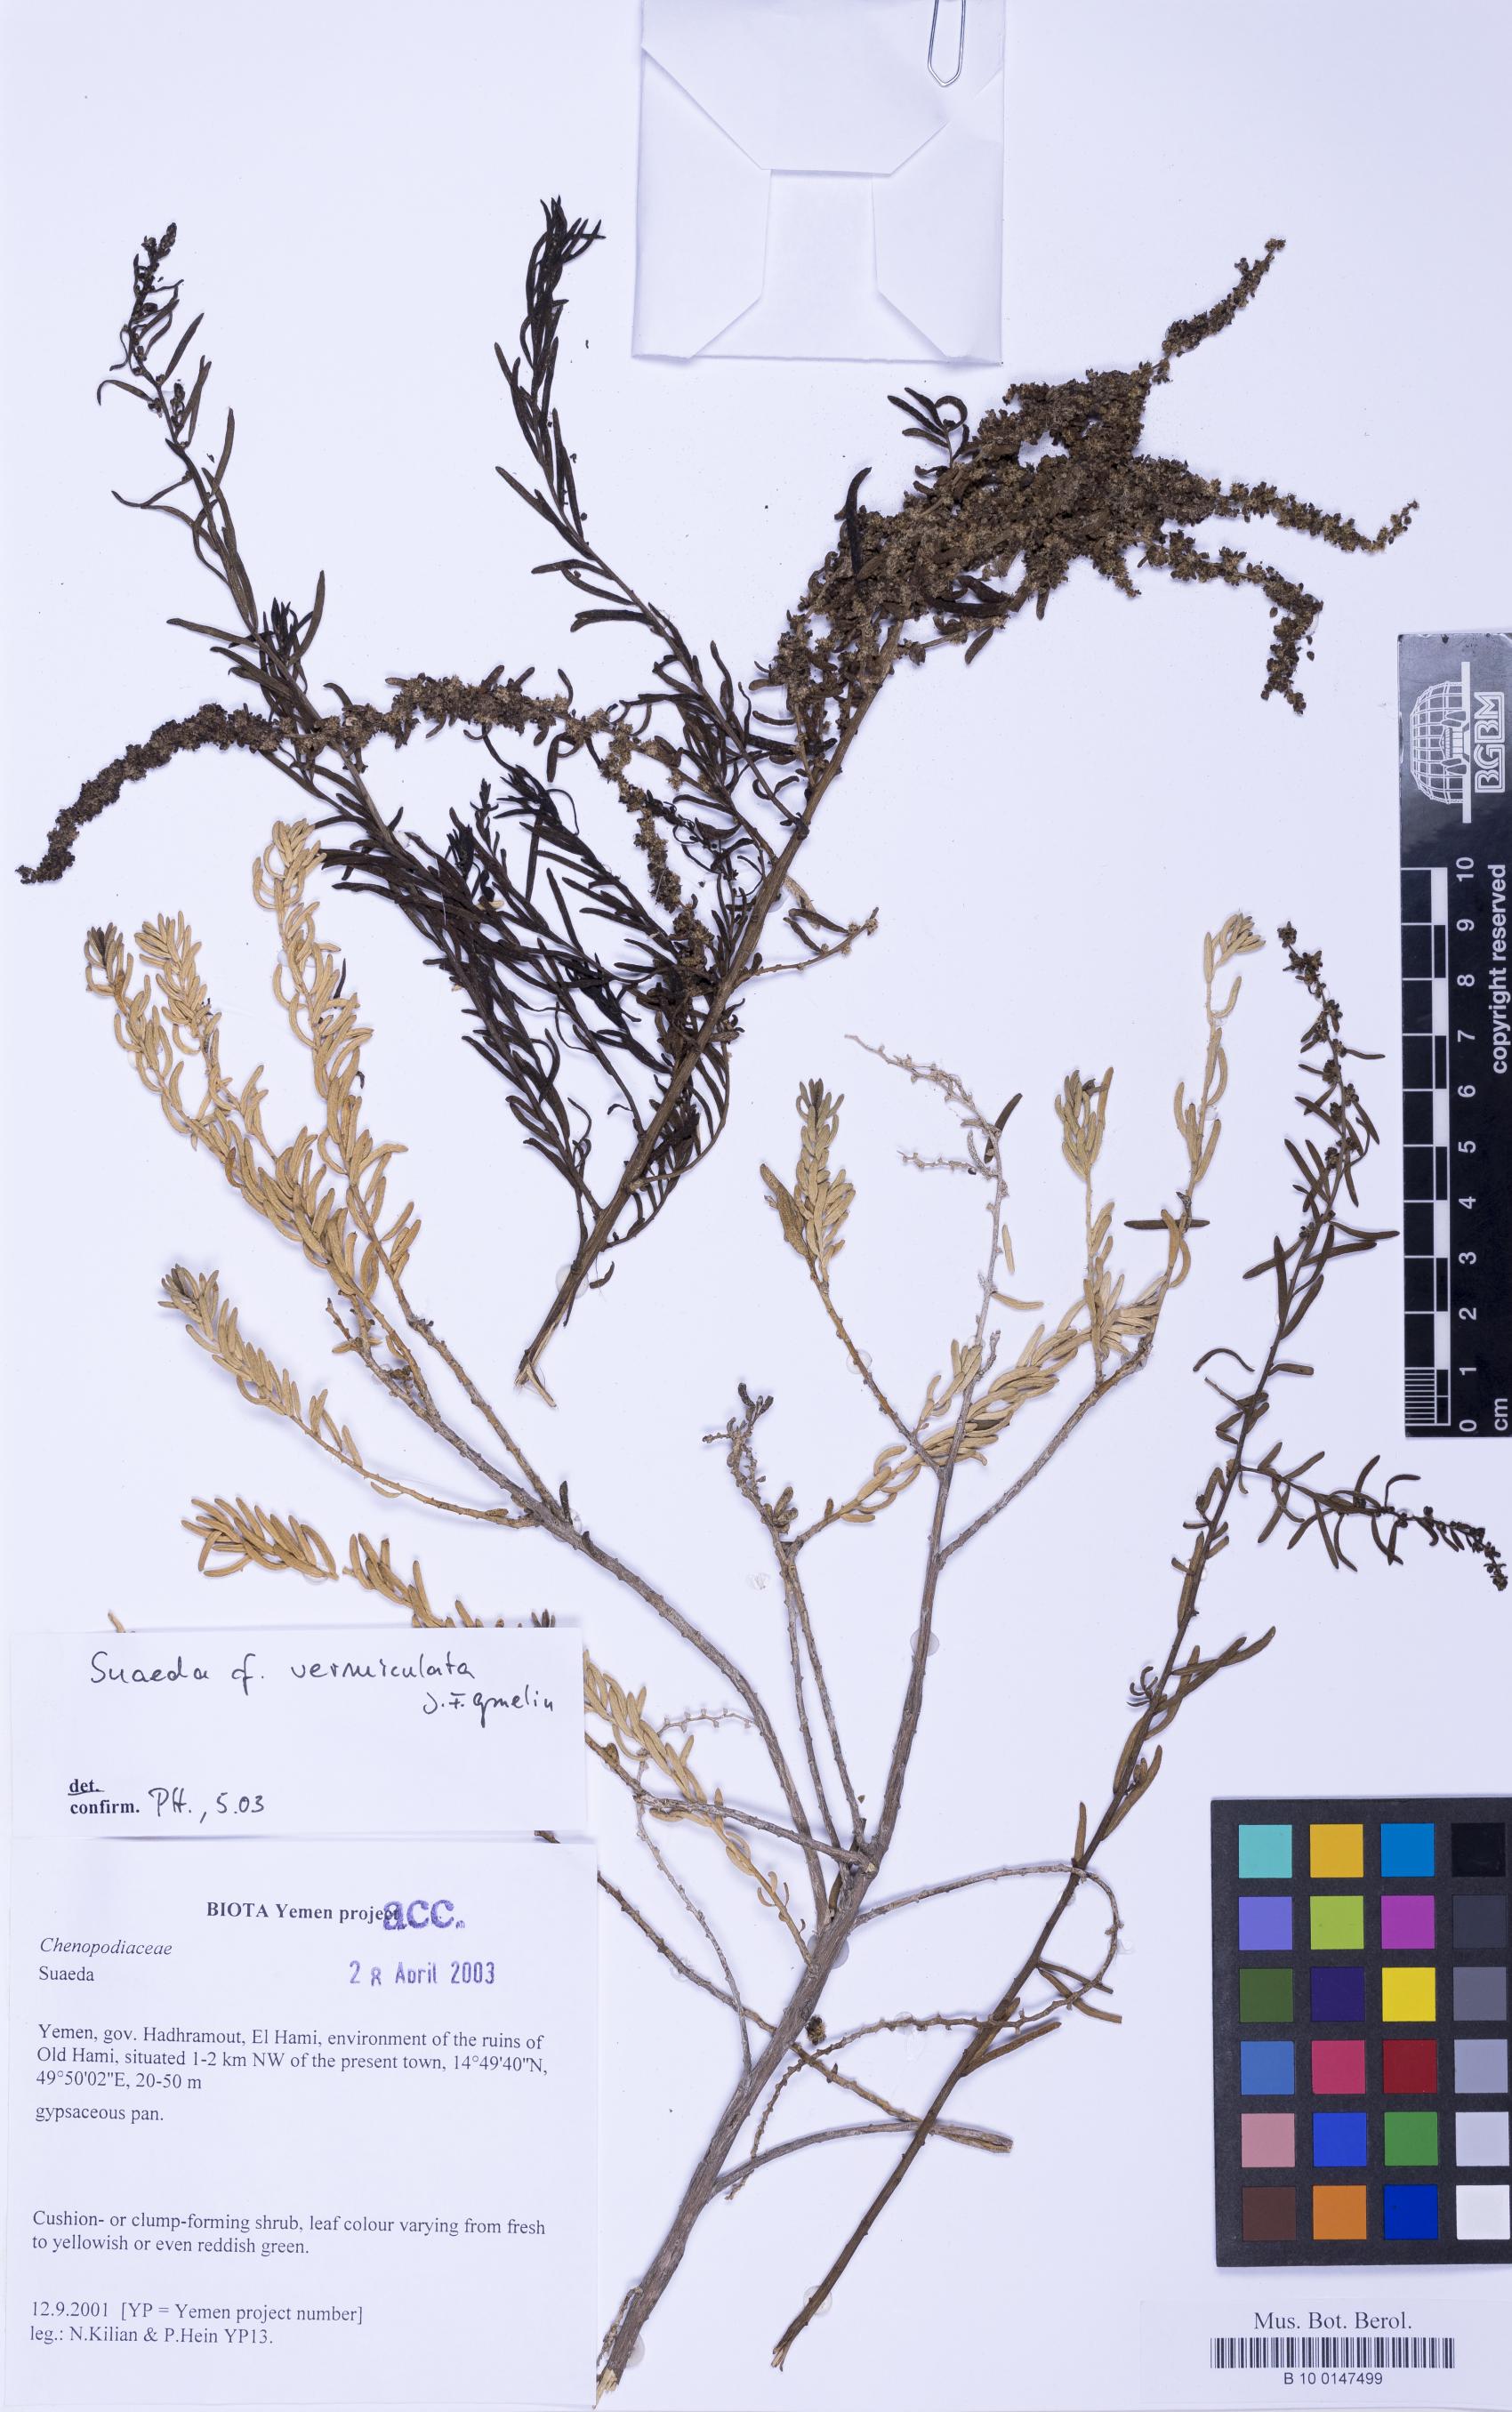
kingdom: Plantae
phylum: Tracheophyta
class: Magnoliopsida
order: Caryophyllales
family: Amaranthaceae
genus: Suaeda
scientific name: Suaeda vermiculata
